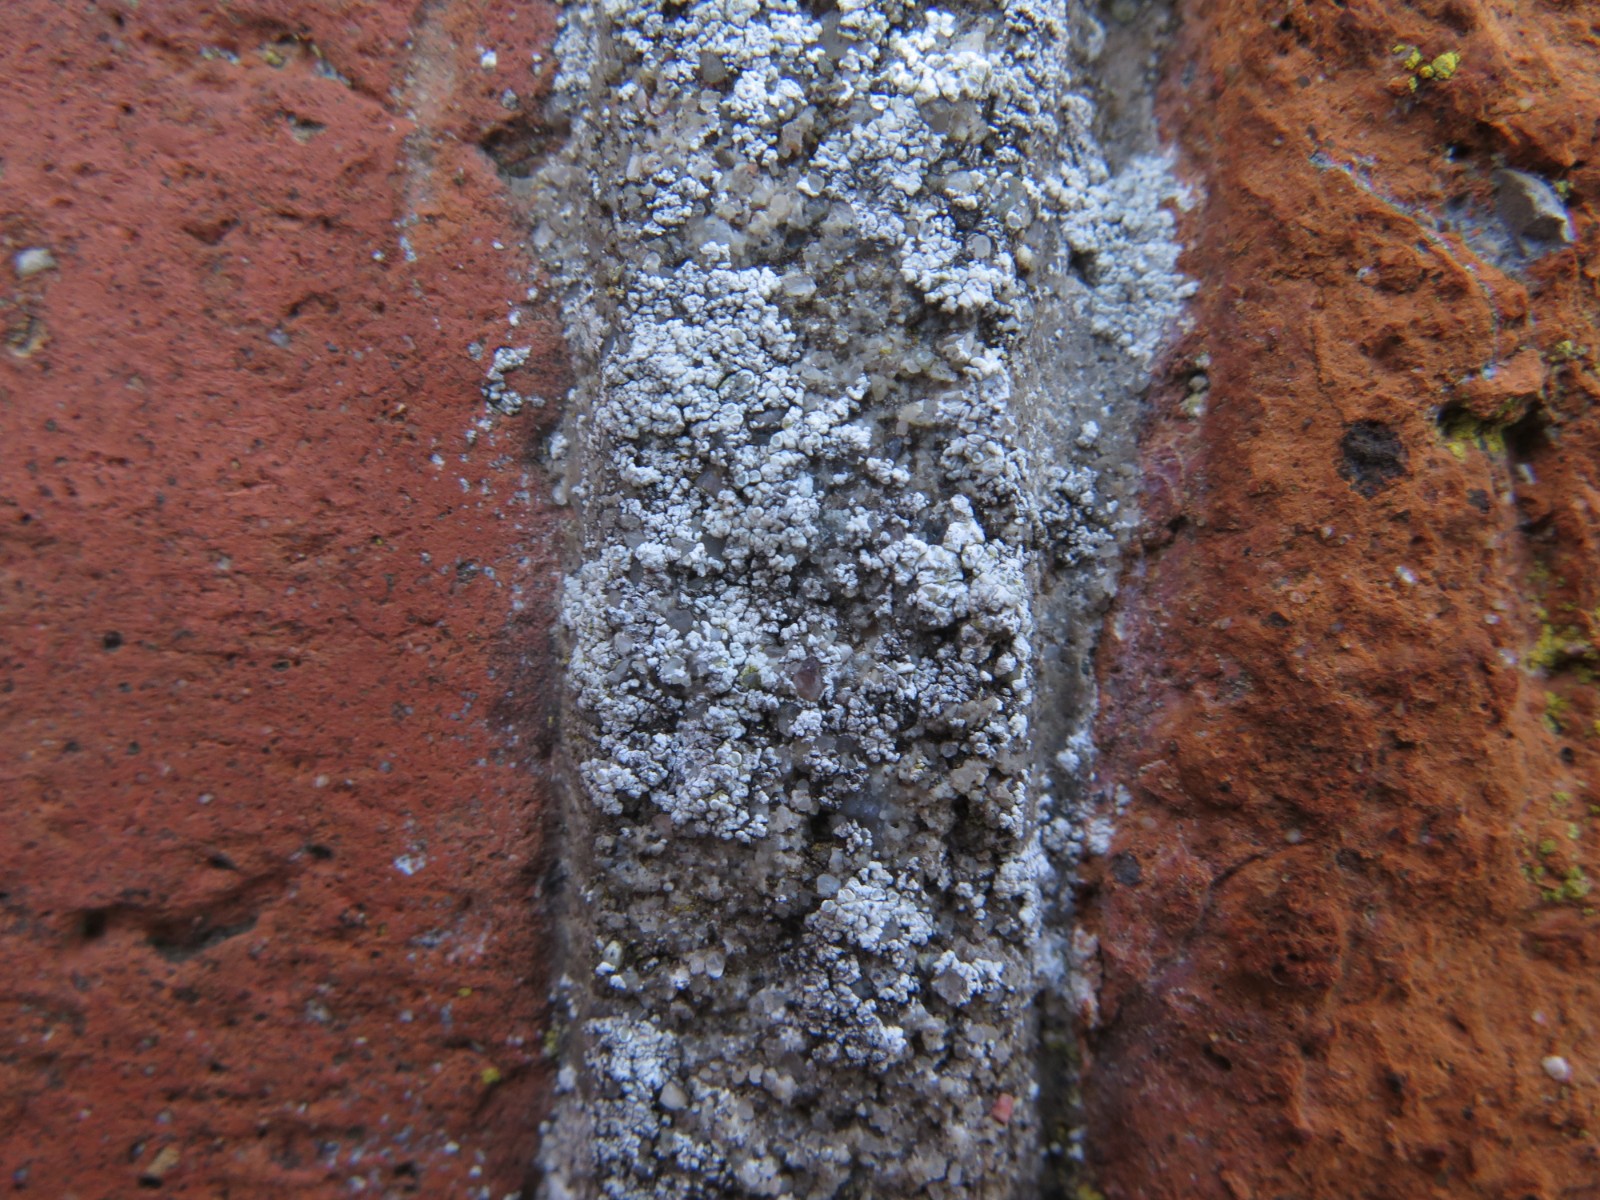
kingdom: Fungi
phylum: Ascomycota
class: Lecanoromycetes
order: Lecanorales
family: Lecanoraceae
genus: Polyozosia
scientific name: Polyozosia albescens
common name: cement-kantskivelav
